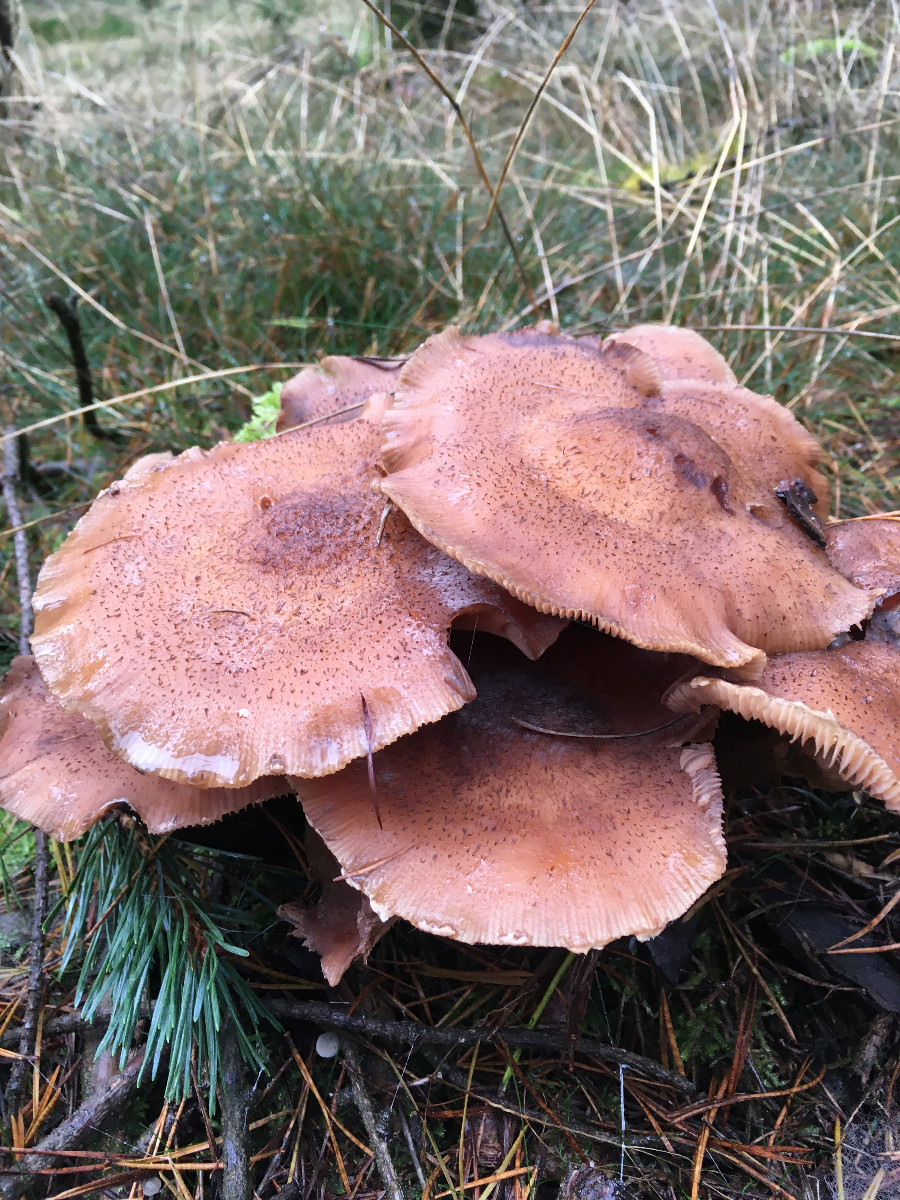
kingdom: Fungi
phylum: Basidiomycota
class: Agaricomycetes
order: Agaricales
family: Physalacriaceae
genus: Armillaria
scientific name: Armillaria ostoyae
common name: mørk honningsvamp
